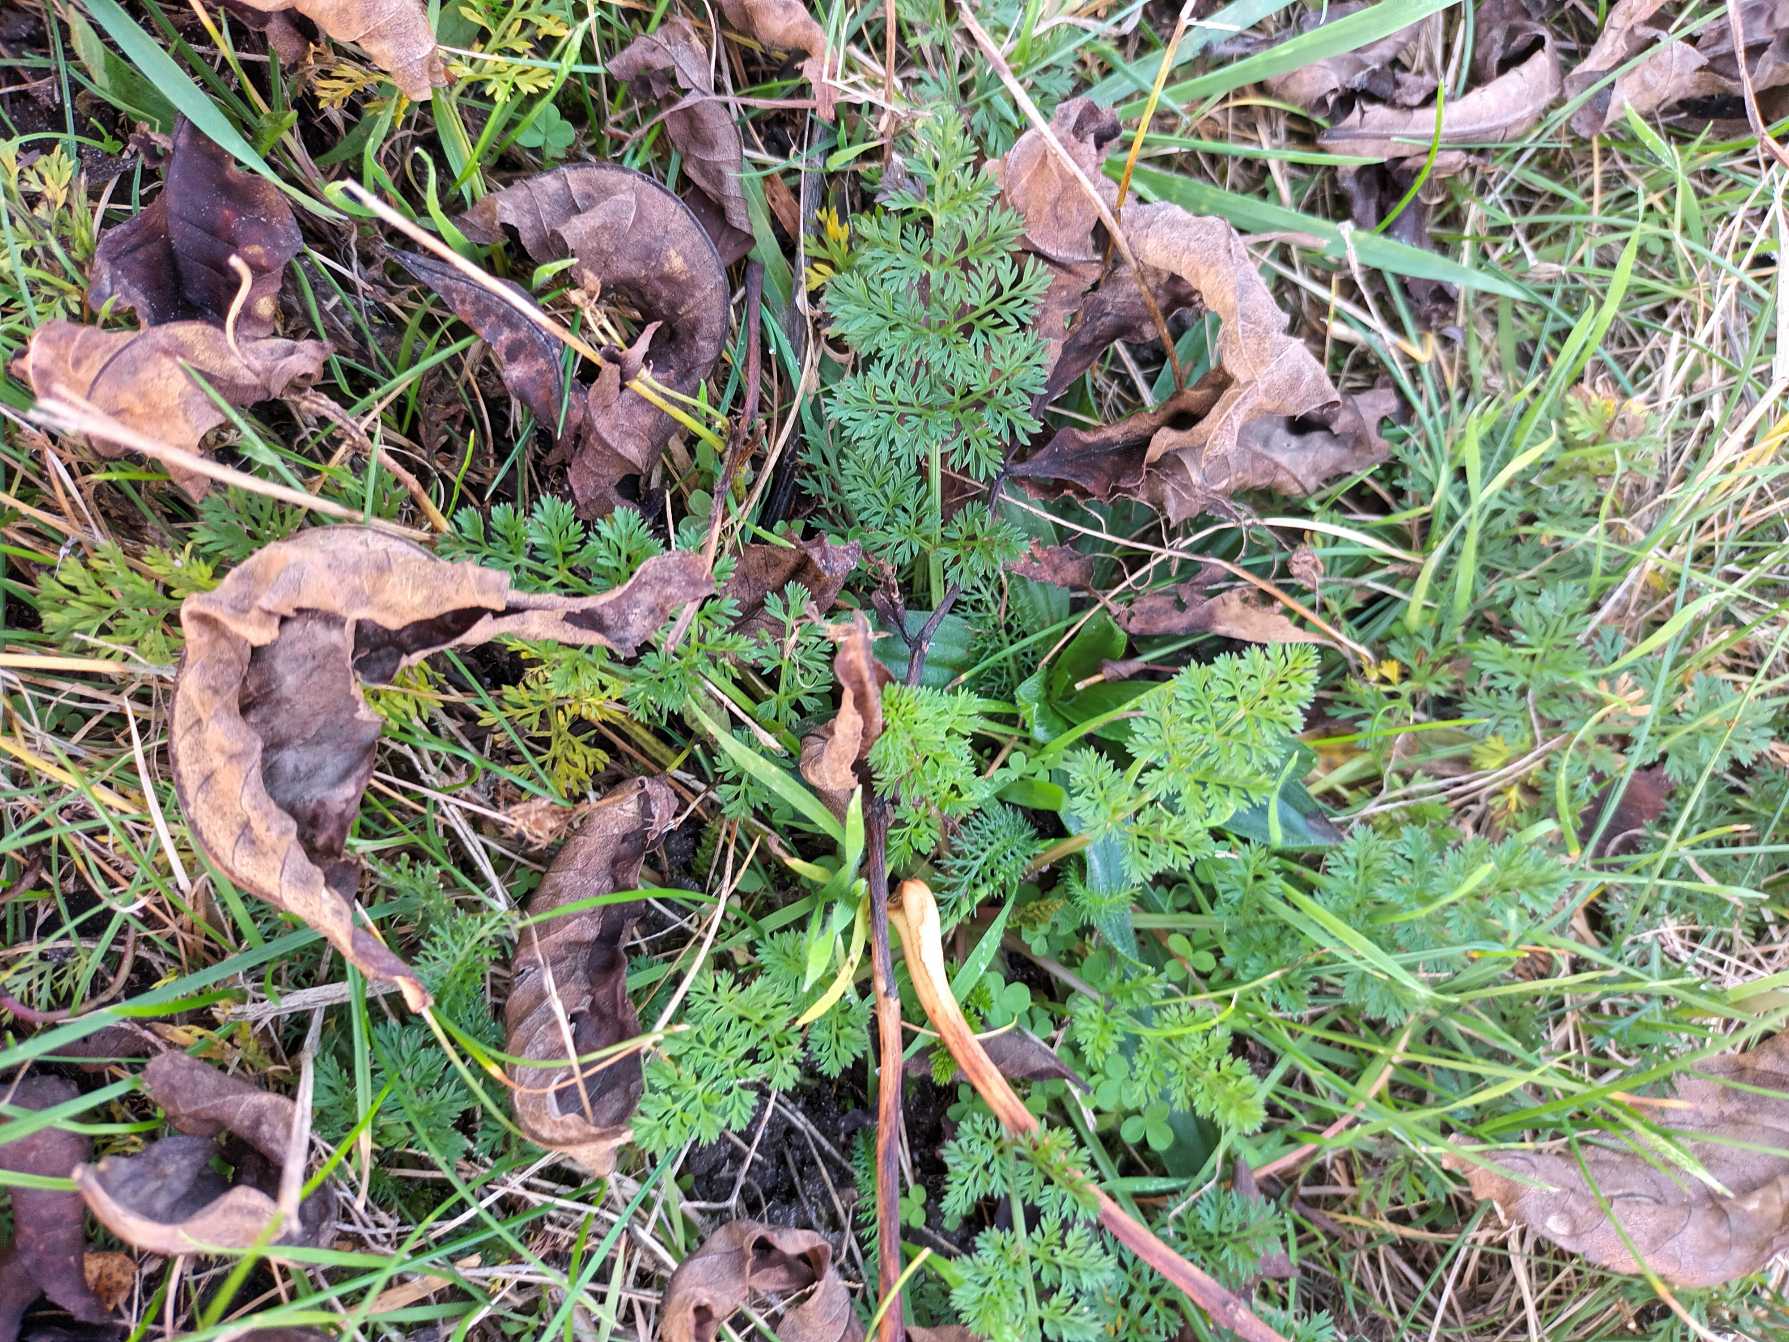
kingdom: Plantae
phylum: Tracheophyta
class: Magnoliopsida
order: Apiales
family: Apiaceae
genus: Daucus
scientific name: Daucus carota
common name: Gulerod
